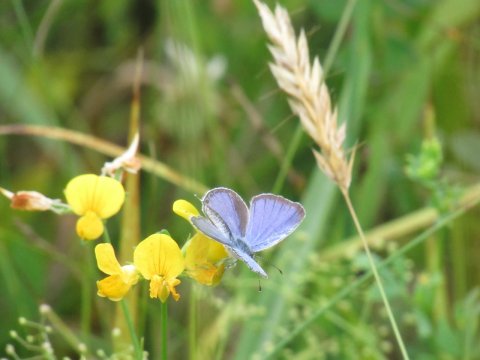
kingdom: Animalia
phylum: Arthropoda
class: Insecta
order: Lepidoptera
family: Lycaenidae
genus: Elkalyce
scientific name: Elkalyce comyntas
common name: Eastern Tailed-Blue
